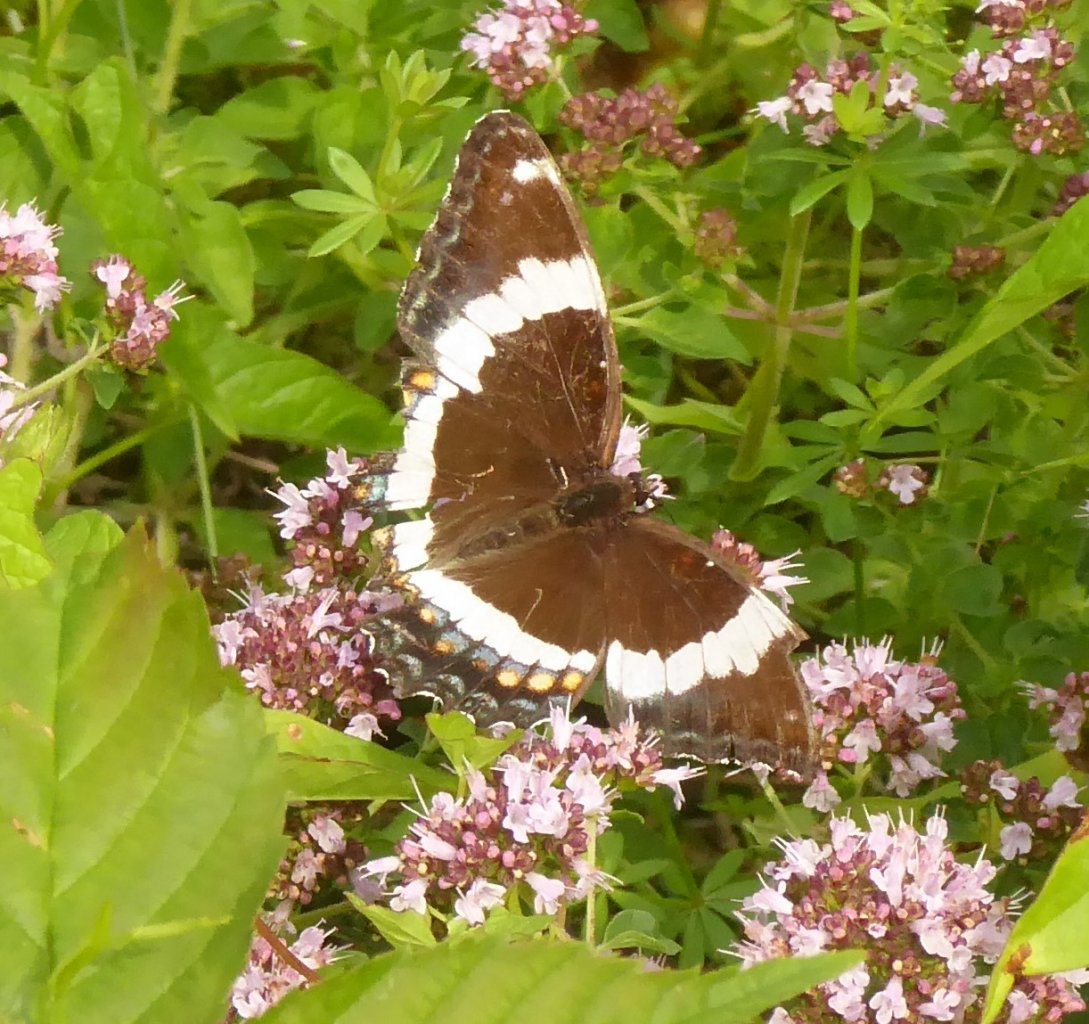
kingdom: Animalia
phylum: Arthropoda
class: Insecta
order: Lepidoptera
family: Nymphalidae
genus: Limenitis
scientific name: Limenitis arthemis
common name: Red-spotted Admiral
